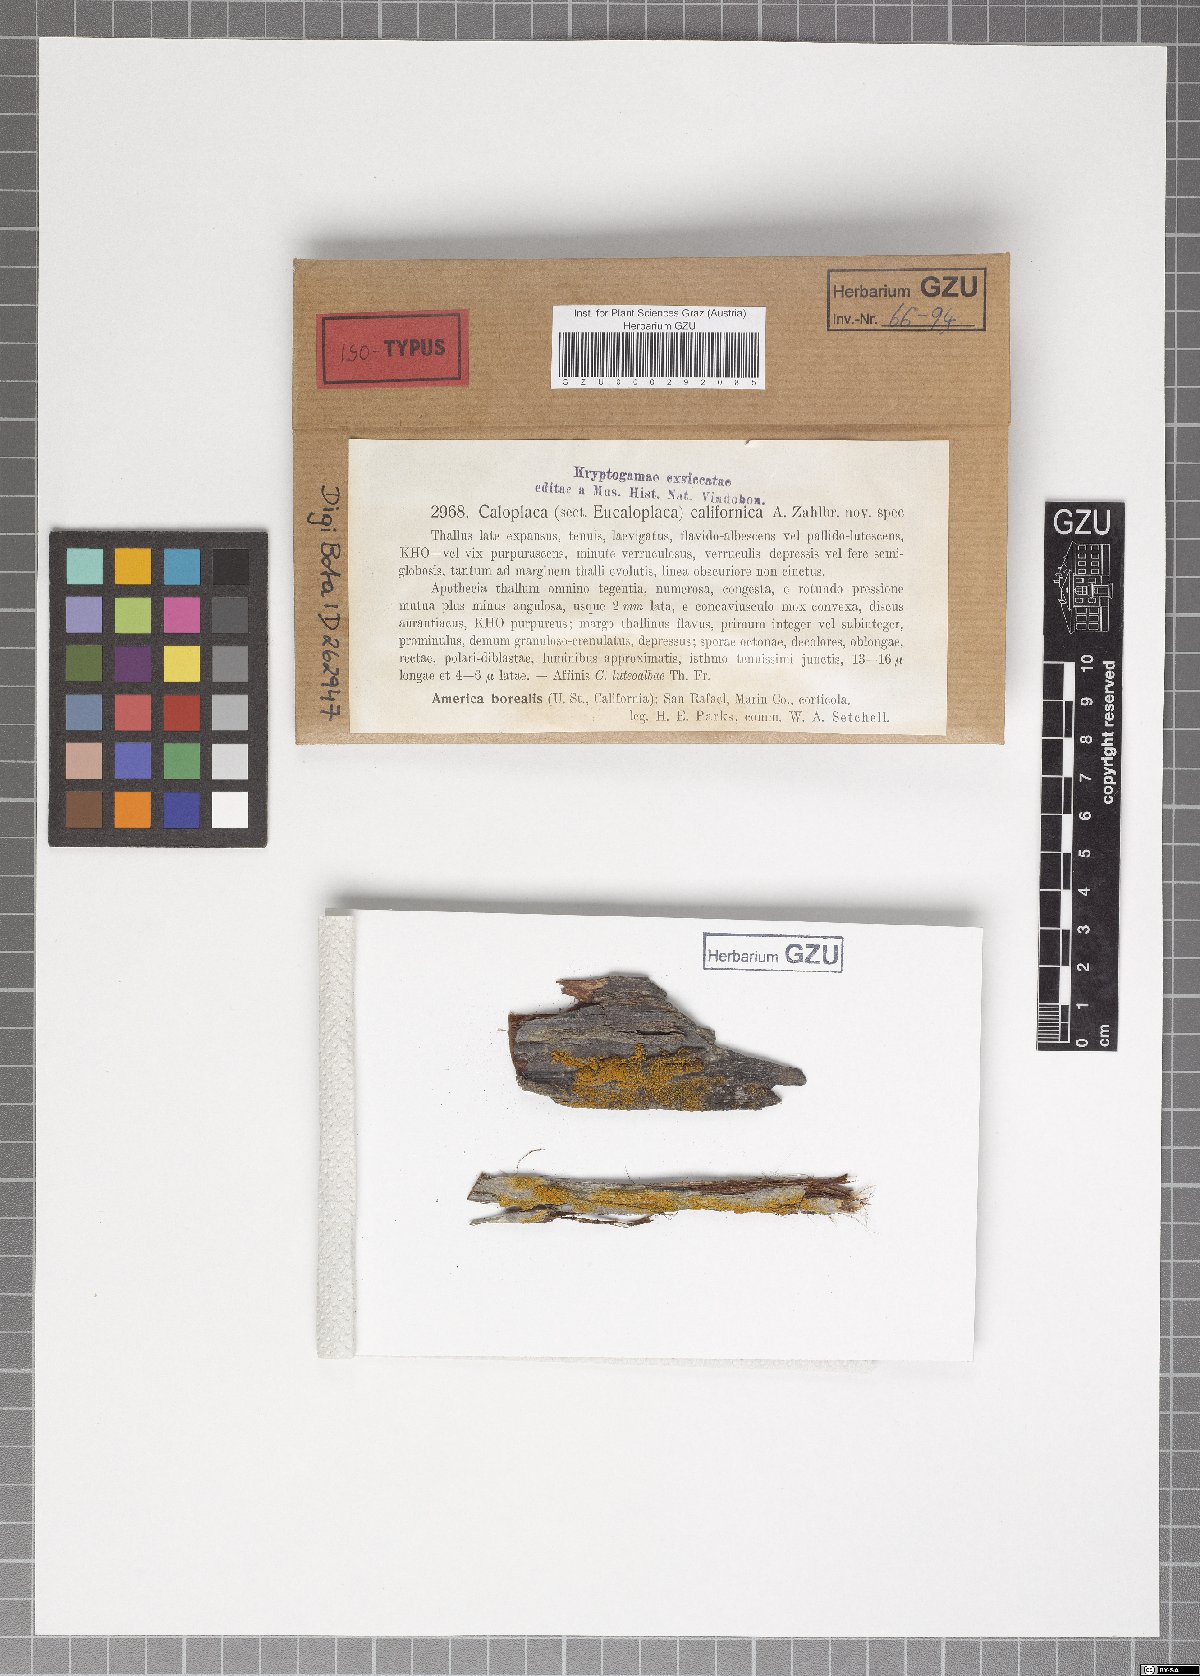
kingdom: Fungi
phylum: Ascomycota
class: Lecanoromycetes
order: Teloschistales
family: Teloschistaceae
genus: Caloplaca
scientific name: Caloplaca californica
